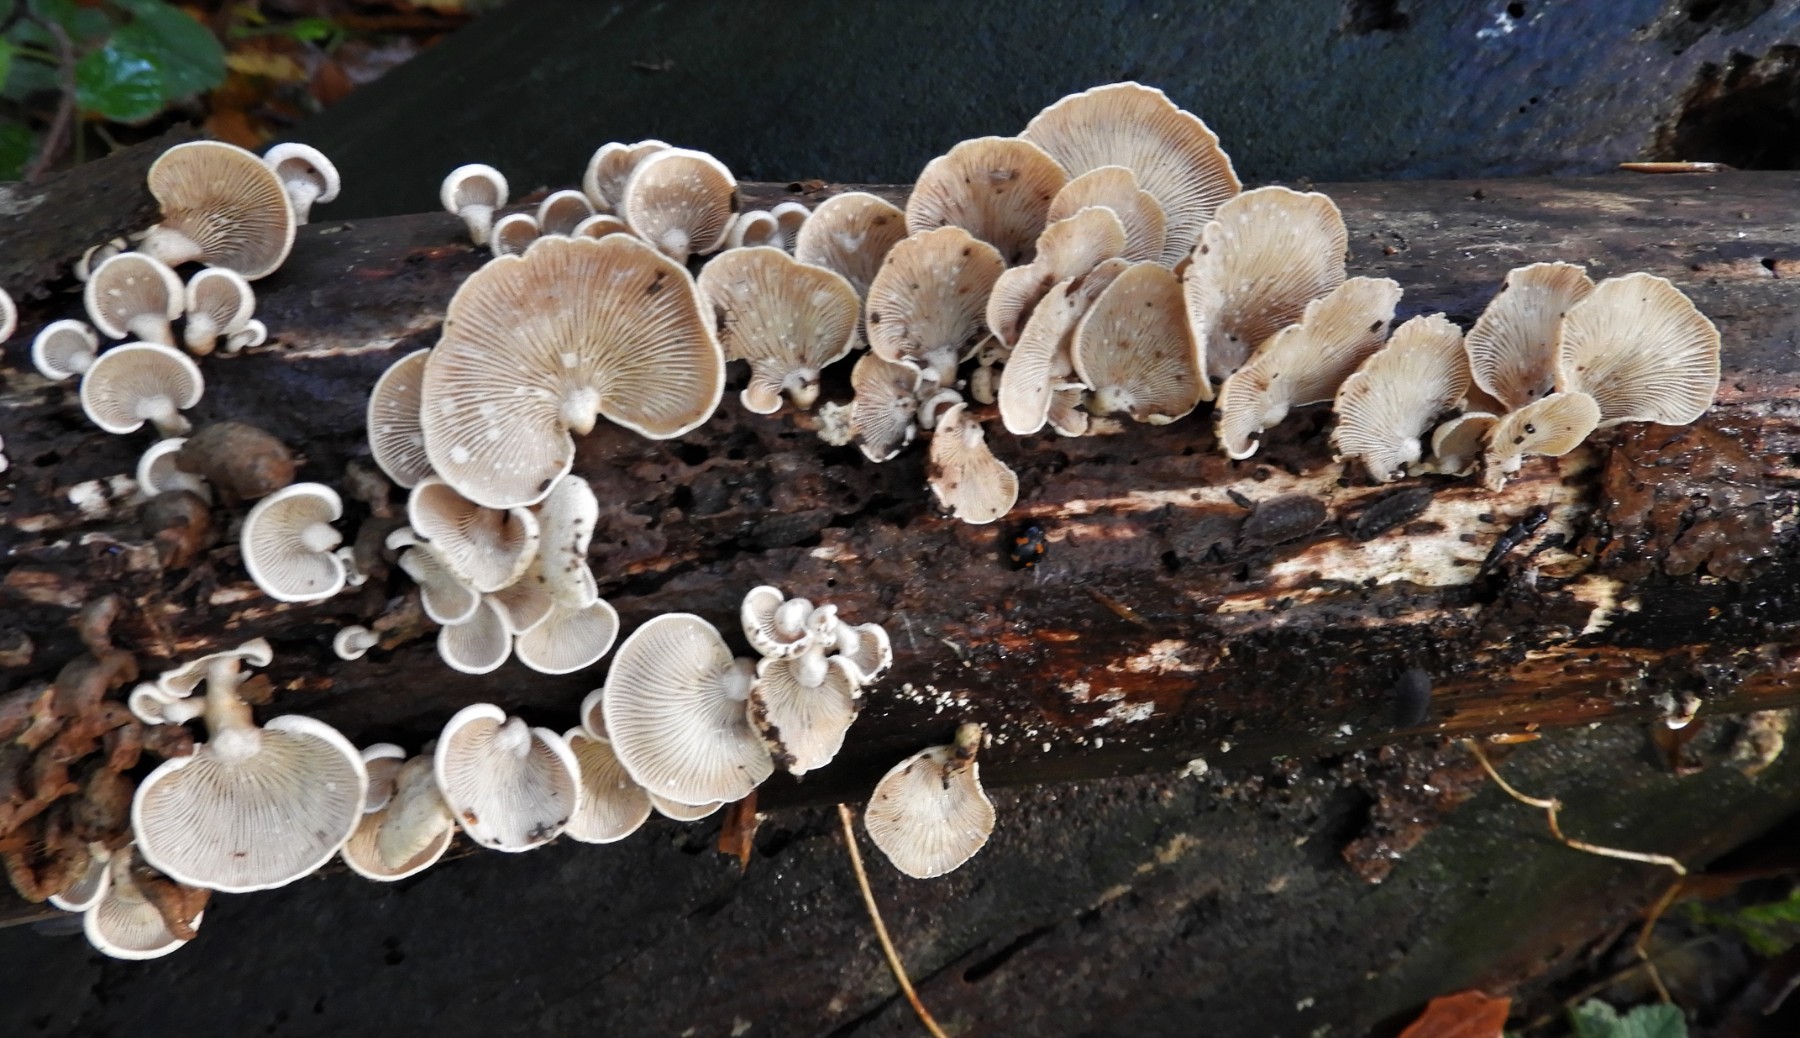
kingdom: Fungi
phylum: Basidiomycota
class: Agaricomycetes
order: Agaricales
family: Mycenaceae
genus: Panellus
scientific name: Panellus stipticus
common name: kliddet epaulethat
